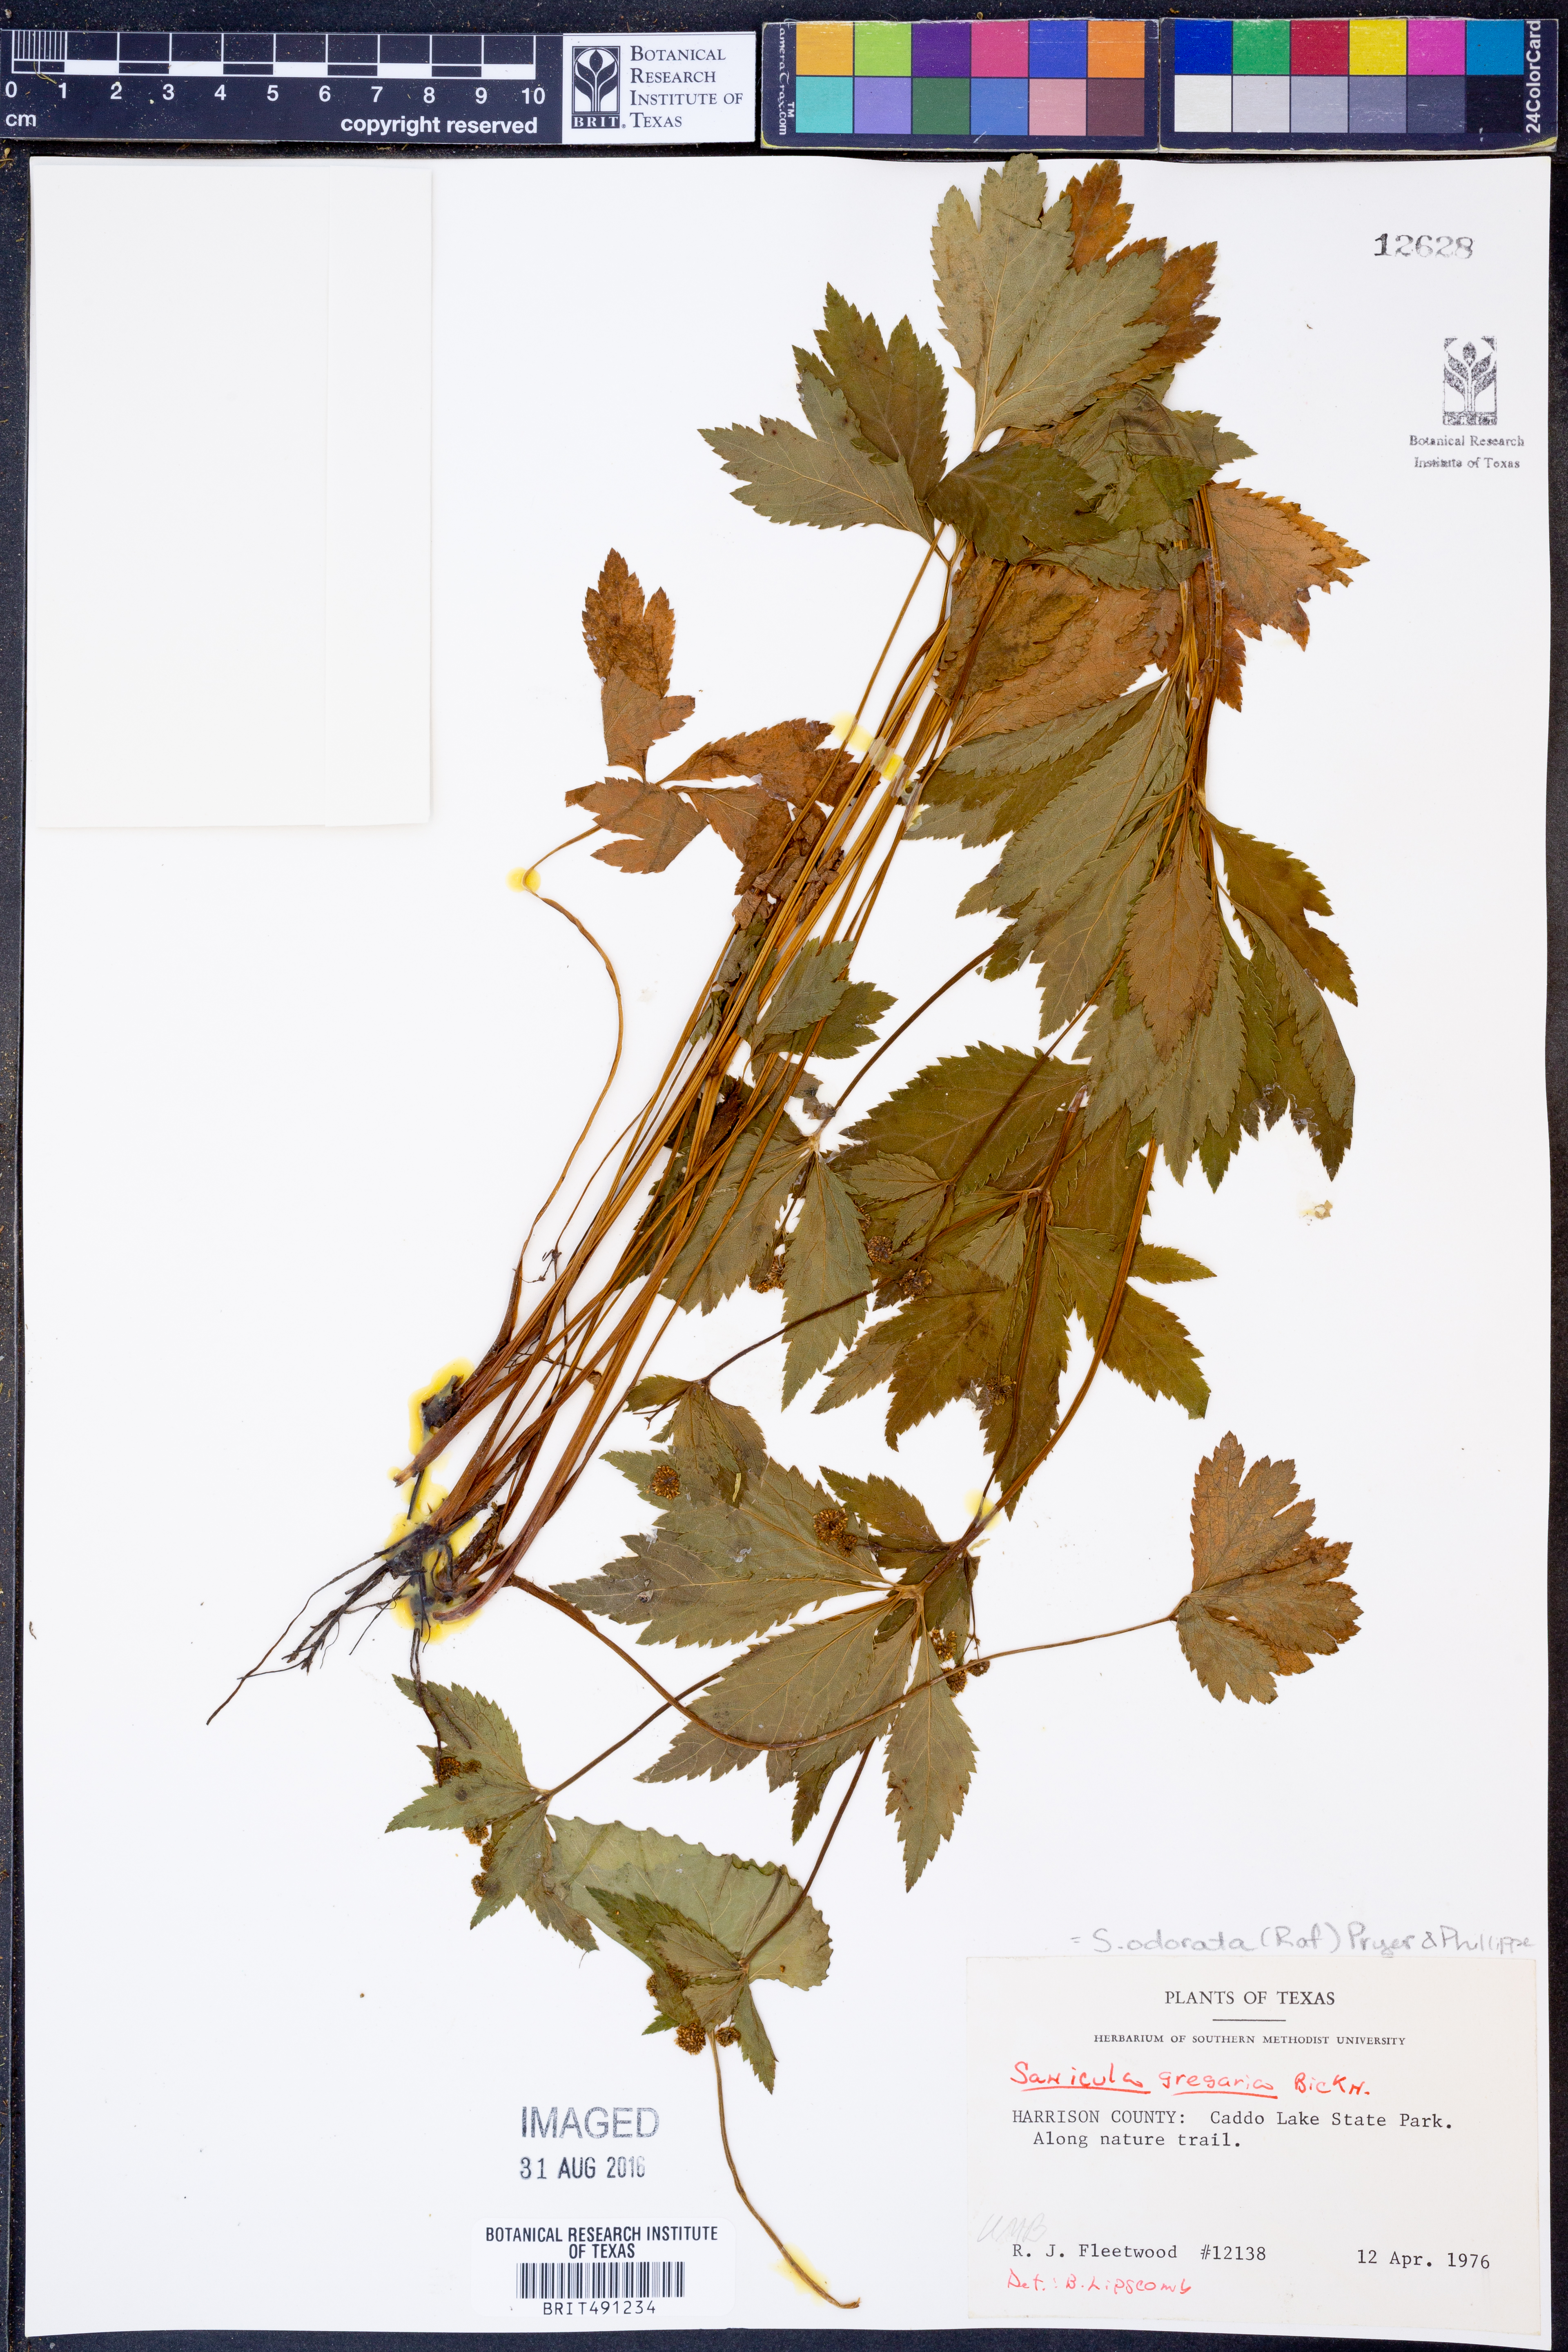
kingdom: Plantae
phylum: Tracheophyta
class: Magnoliopsida
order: Apiales
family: Apiaceae
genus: Sanicula
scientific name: Sanicula odorata
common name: Cluster sanicle
